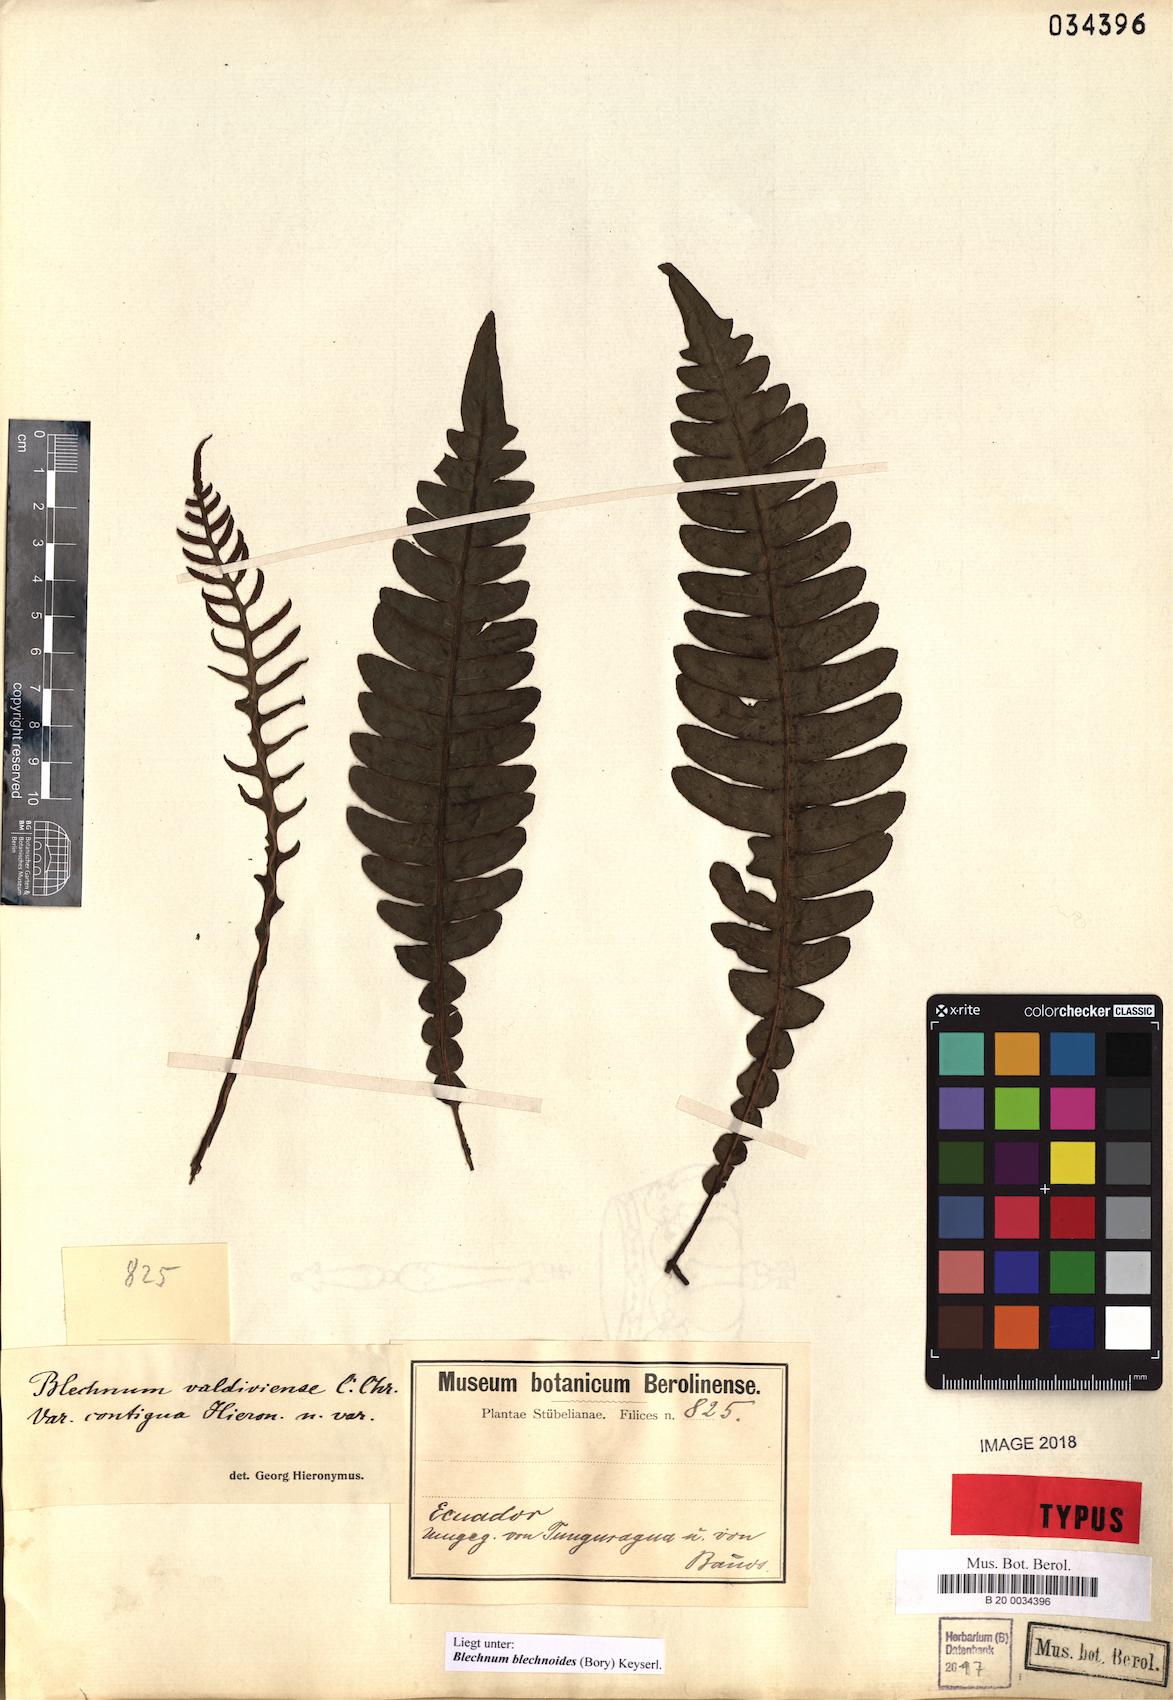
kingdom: Plantae
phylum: Tracheophyta
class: Polypodiopsida
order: Polypodiales
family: Blechnaceae
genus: Austroblechnum
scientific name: Austroblechnum leyboldtianum
